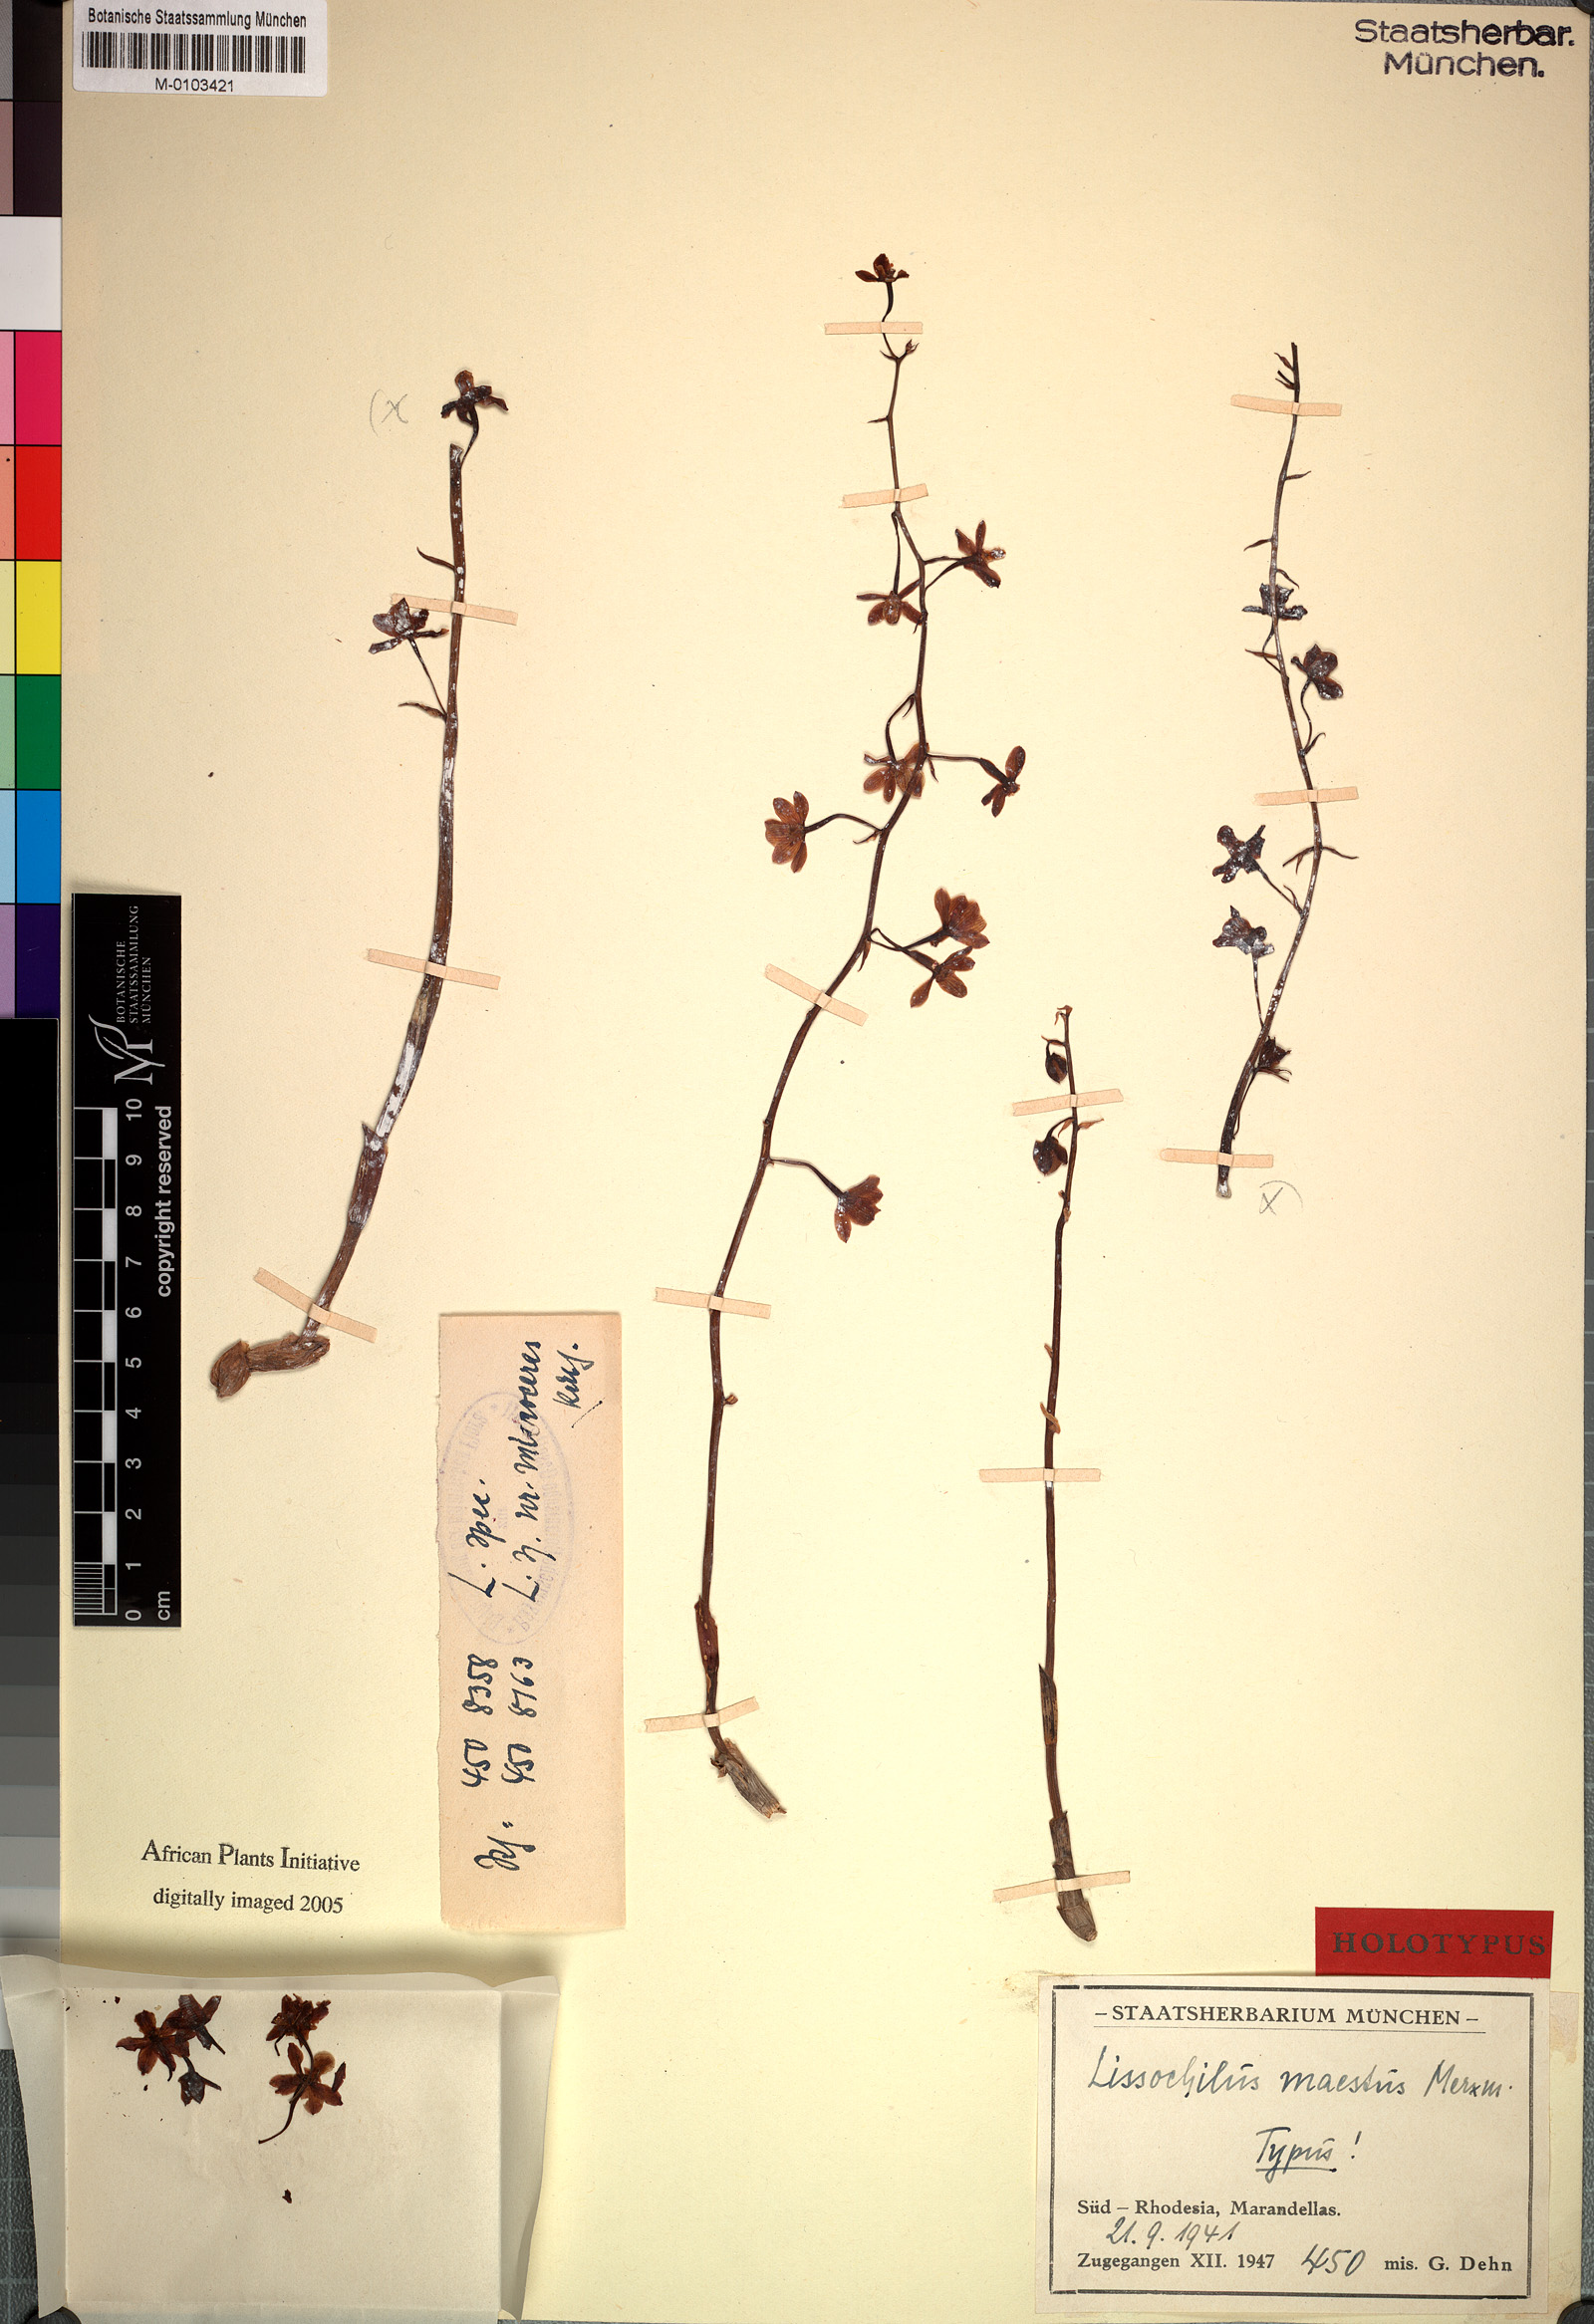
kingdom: Plantae
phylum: Tracheophyta
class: Liliopsida
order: Asparagales
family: Orchidaceae
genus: Eulophia
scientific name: Eulophia pyrophila
